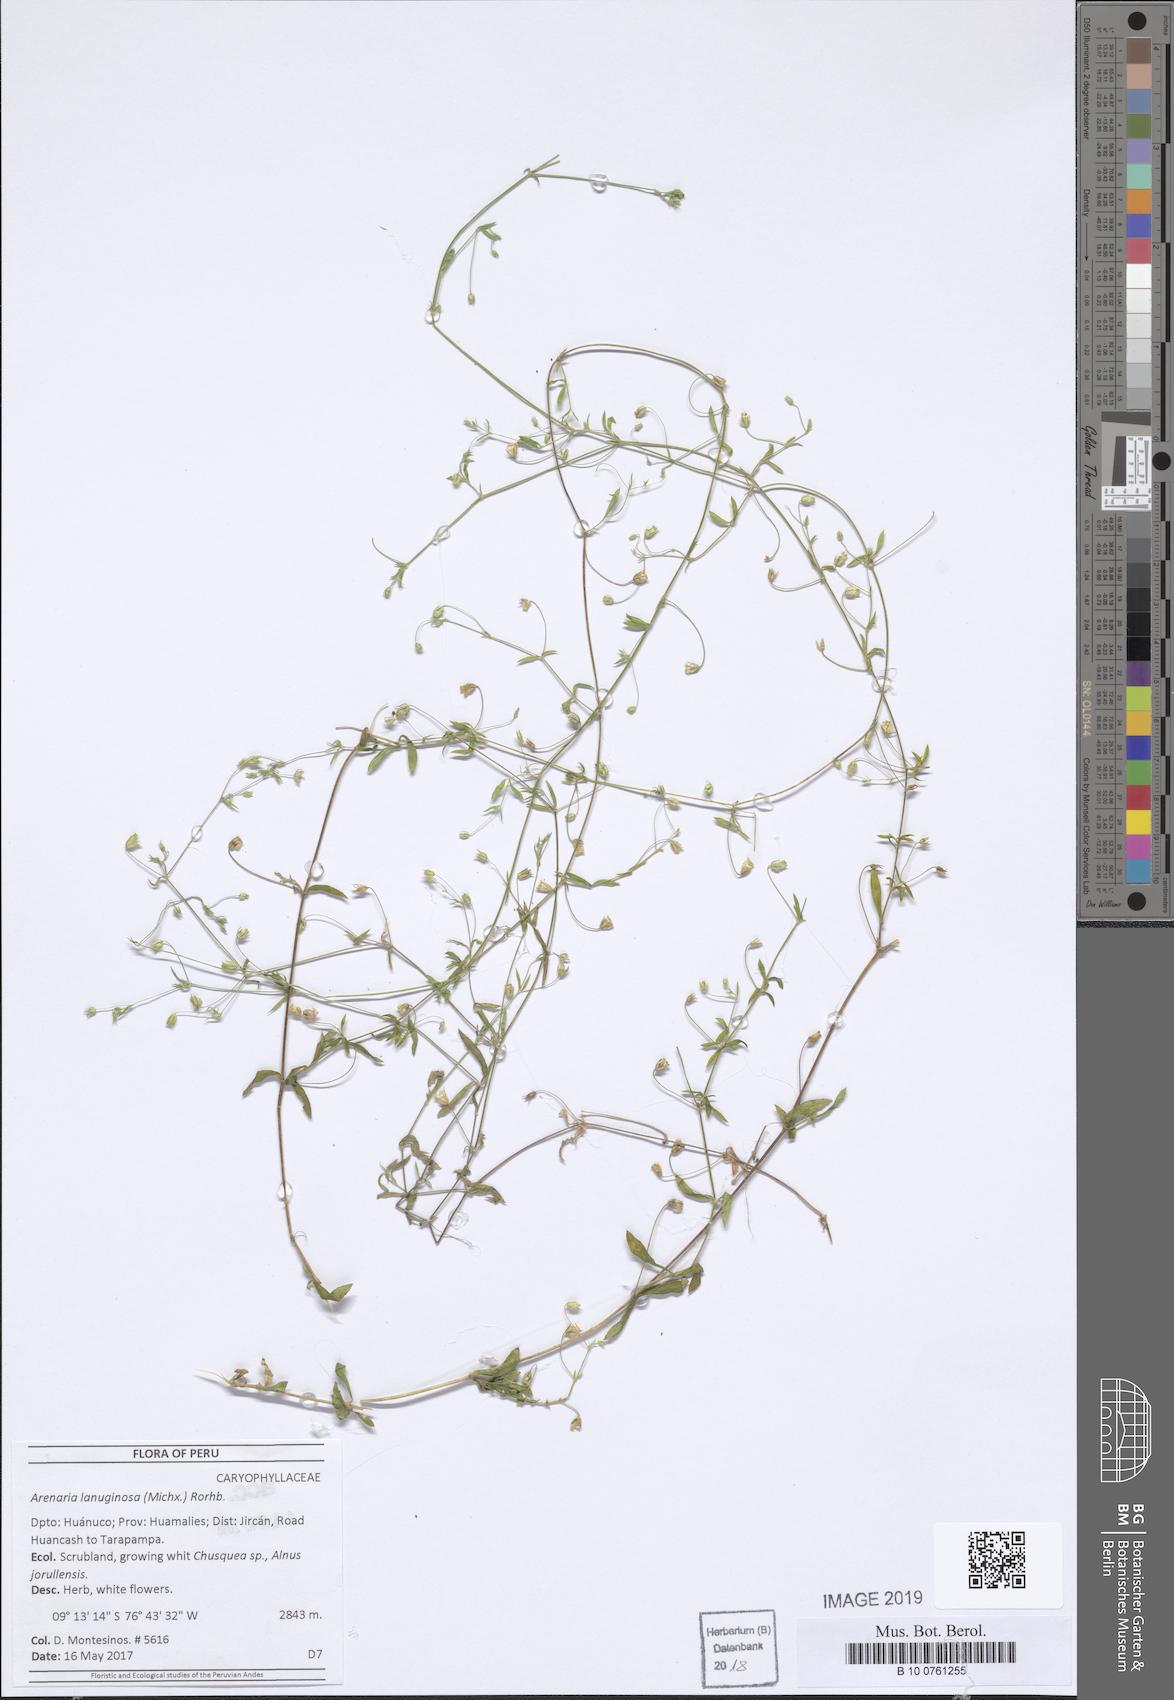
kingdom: Plantae
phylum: Tracheophyta
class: Magnoliopsida
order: Caryophyllales
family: Caryophyllaceae
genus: Arenaria
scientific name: Arenaria lanuginosa
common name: Spread sandwort
